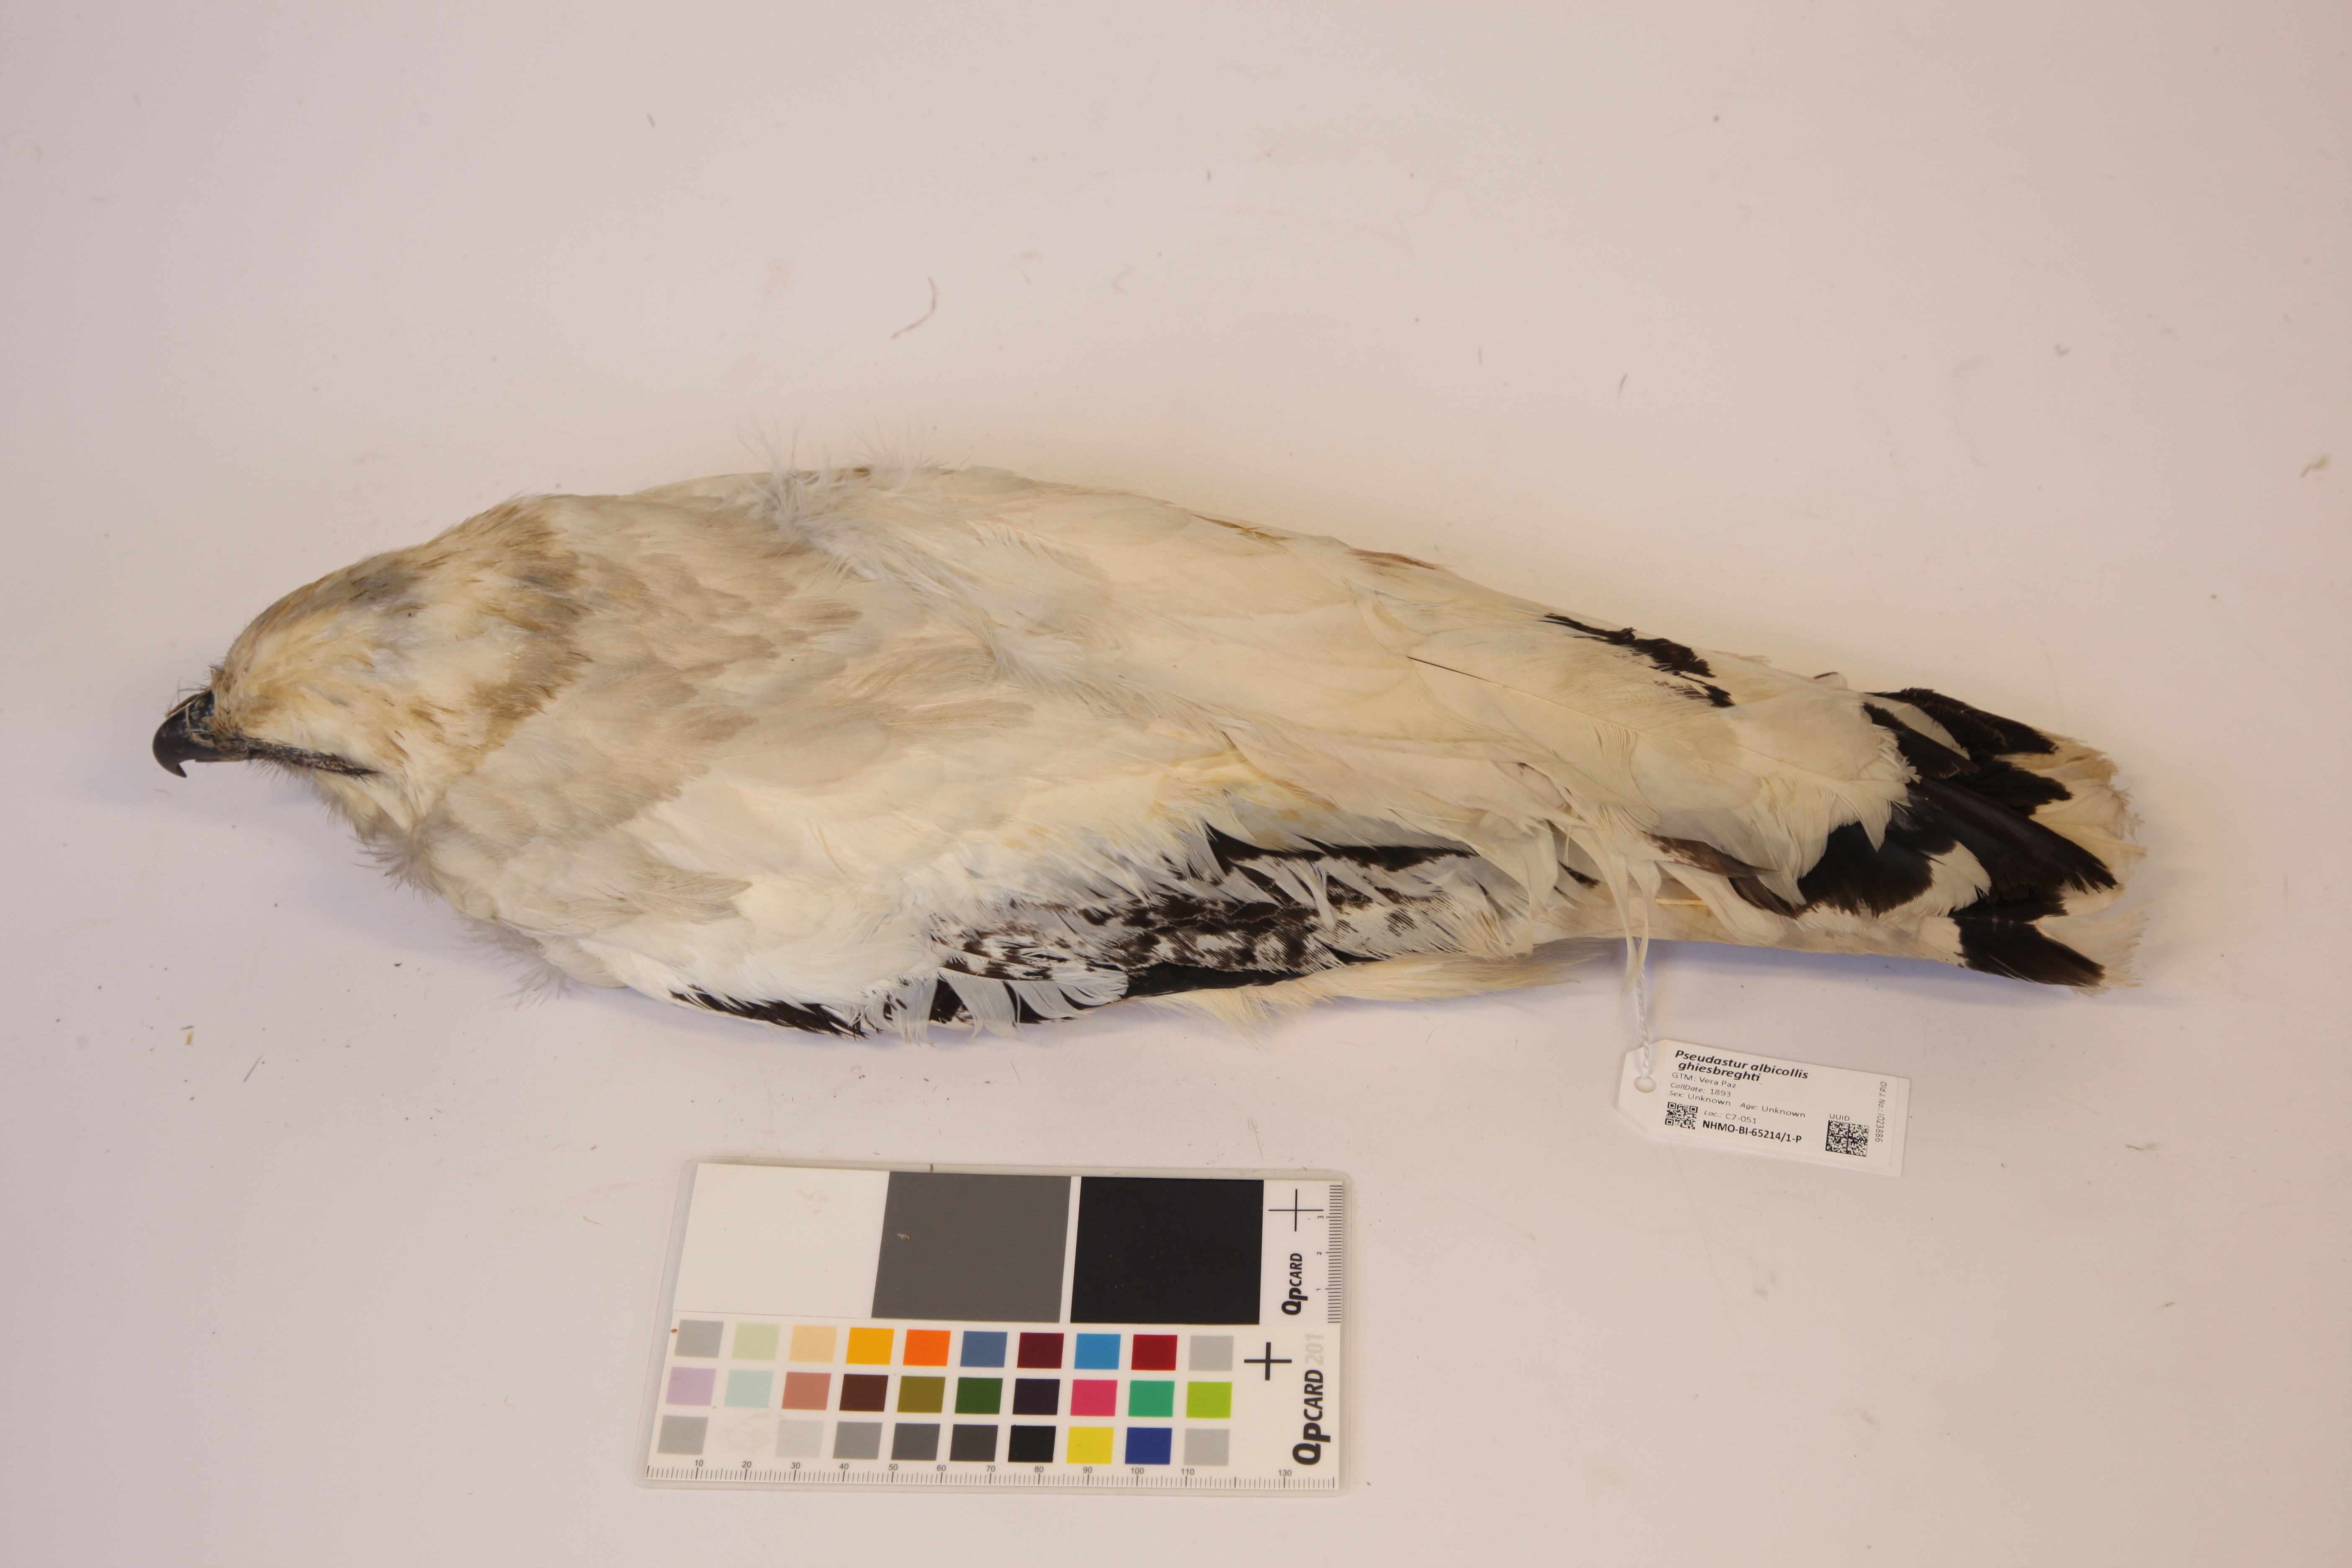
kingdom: Animalia
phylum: Chordata
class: Aves
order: Accipitriformes
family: Accipitridae
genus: Leucopternis
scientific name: Leucopternis albicollis
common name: White hawk
